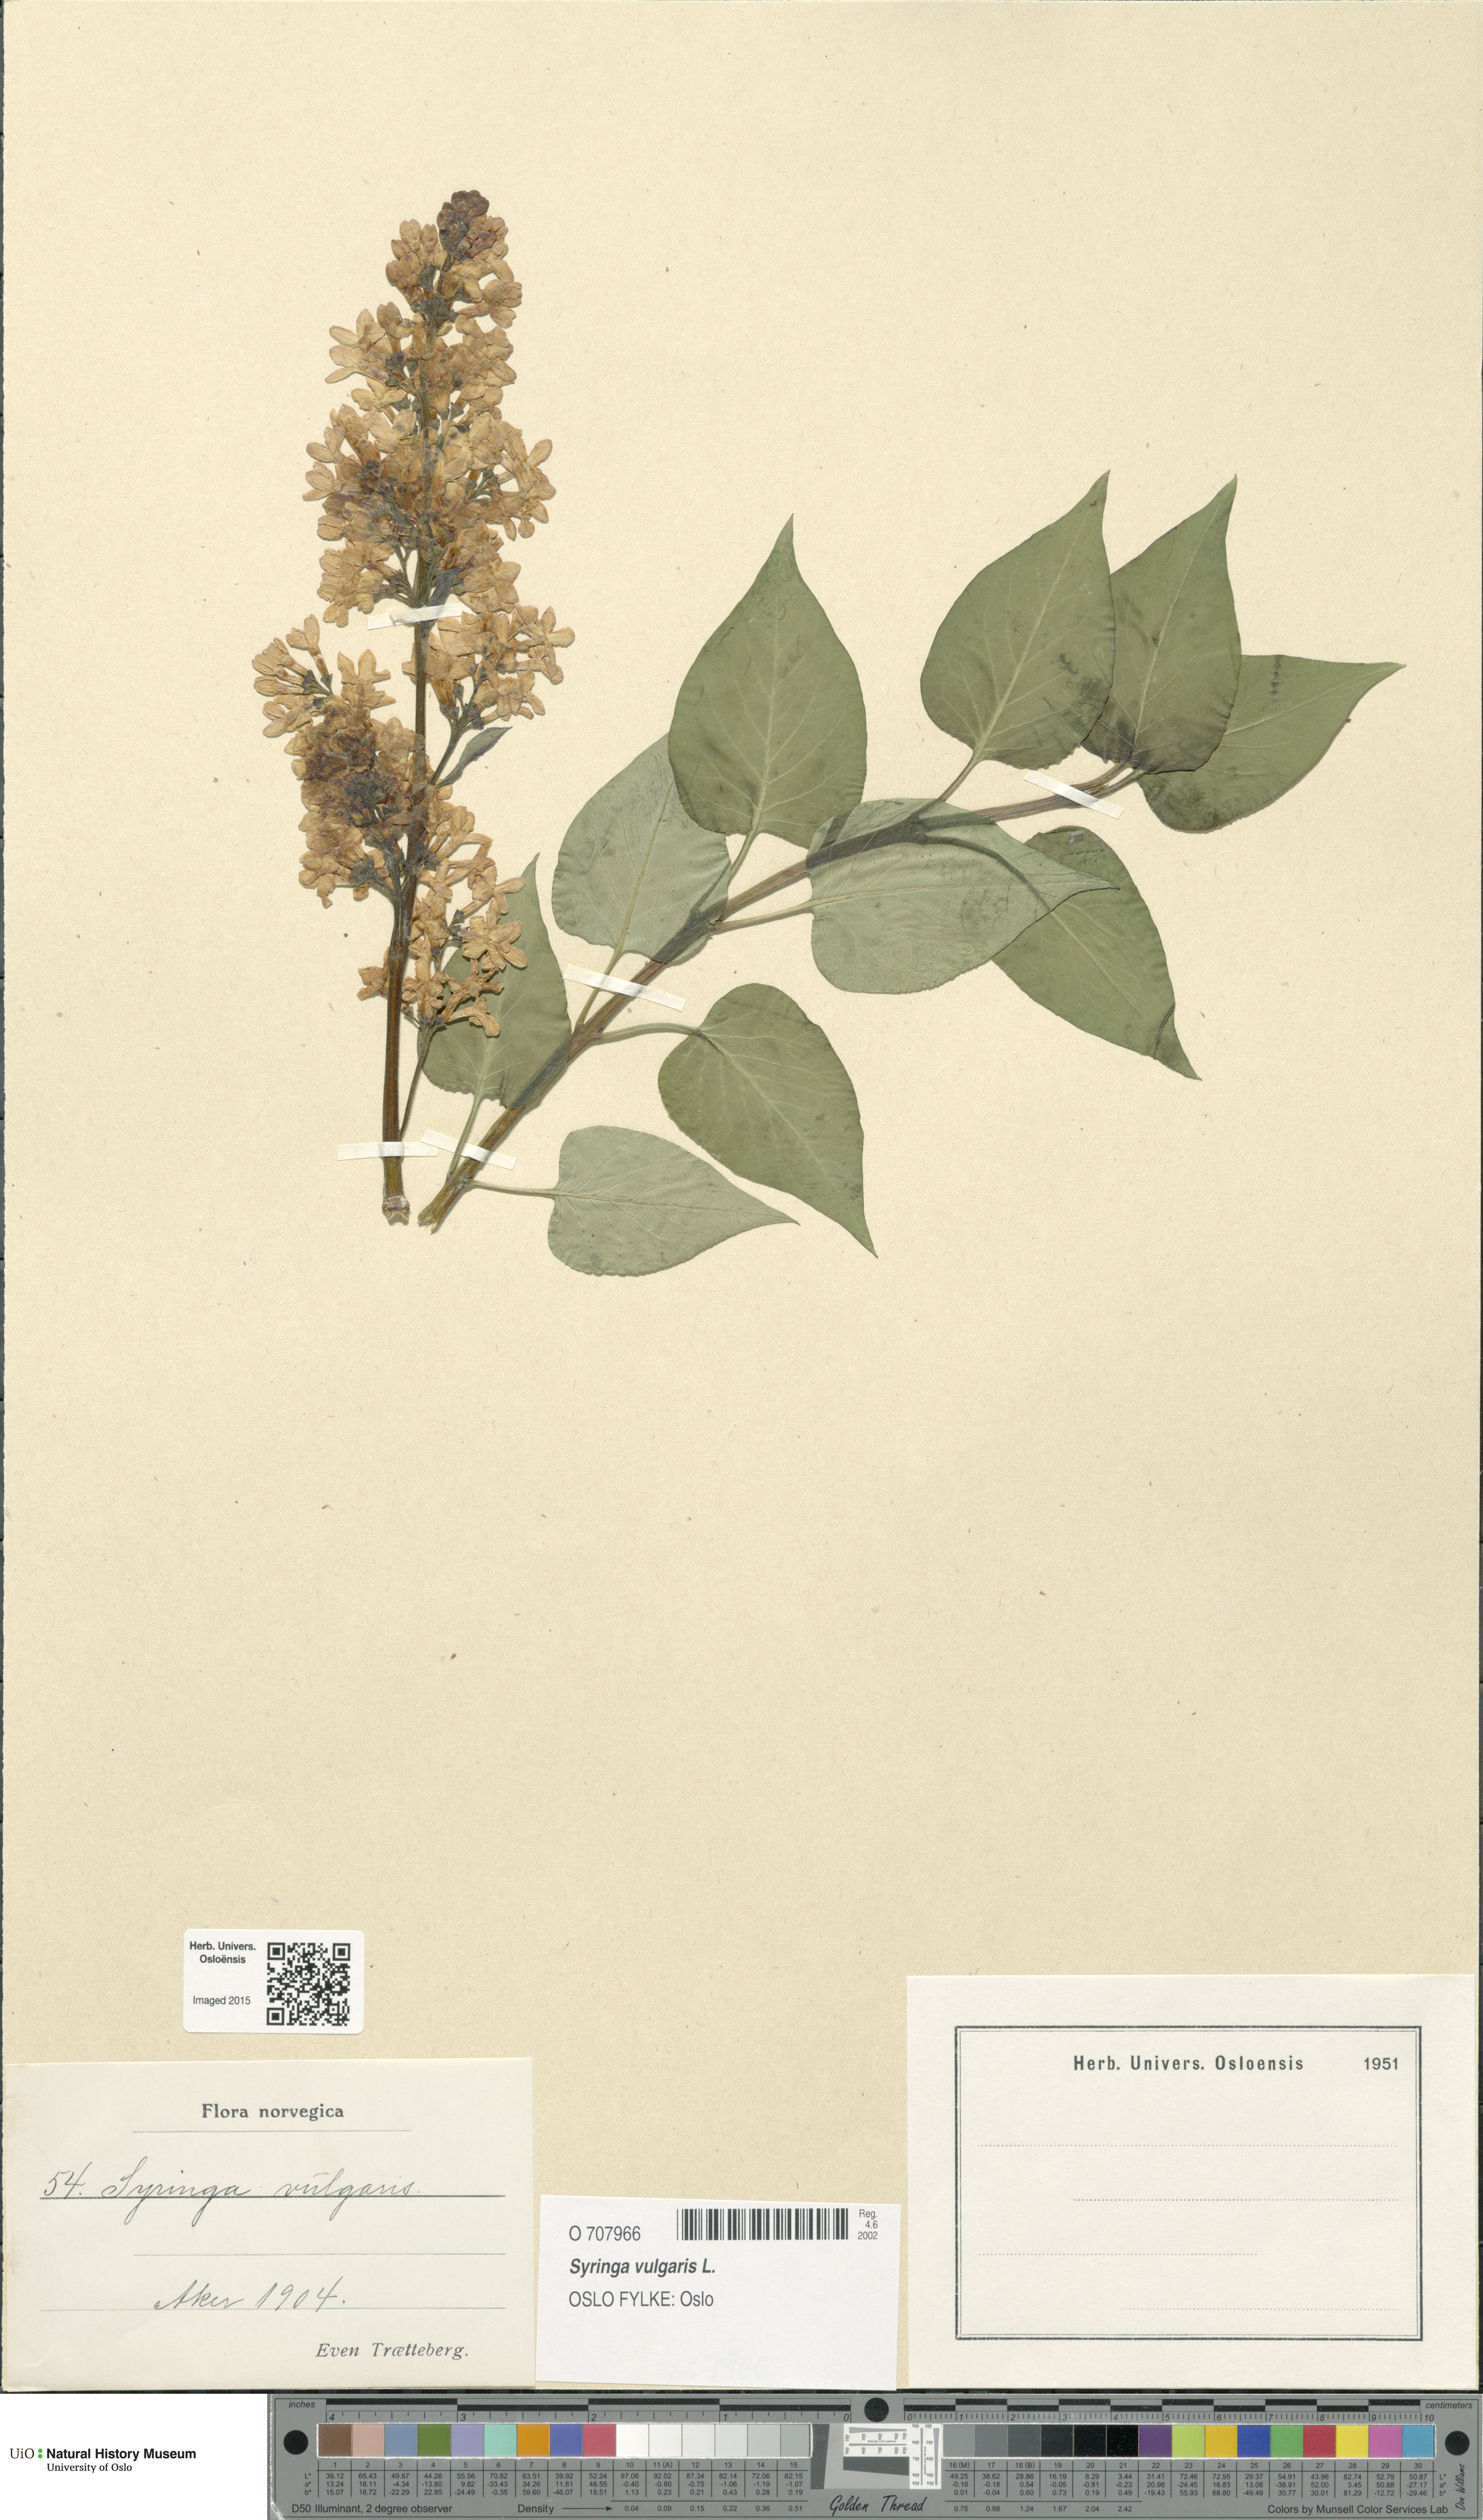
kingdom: Plantae
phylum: Tracheophyta
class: Magnoliopsida
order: Lamiales
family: Oleaceae
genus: Syringa
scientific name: Syringa vulgaris
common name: Common lilac
